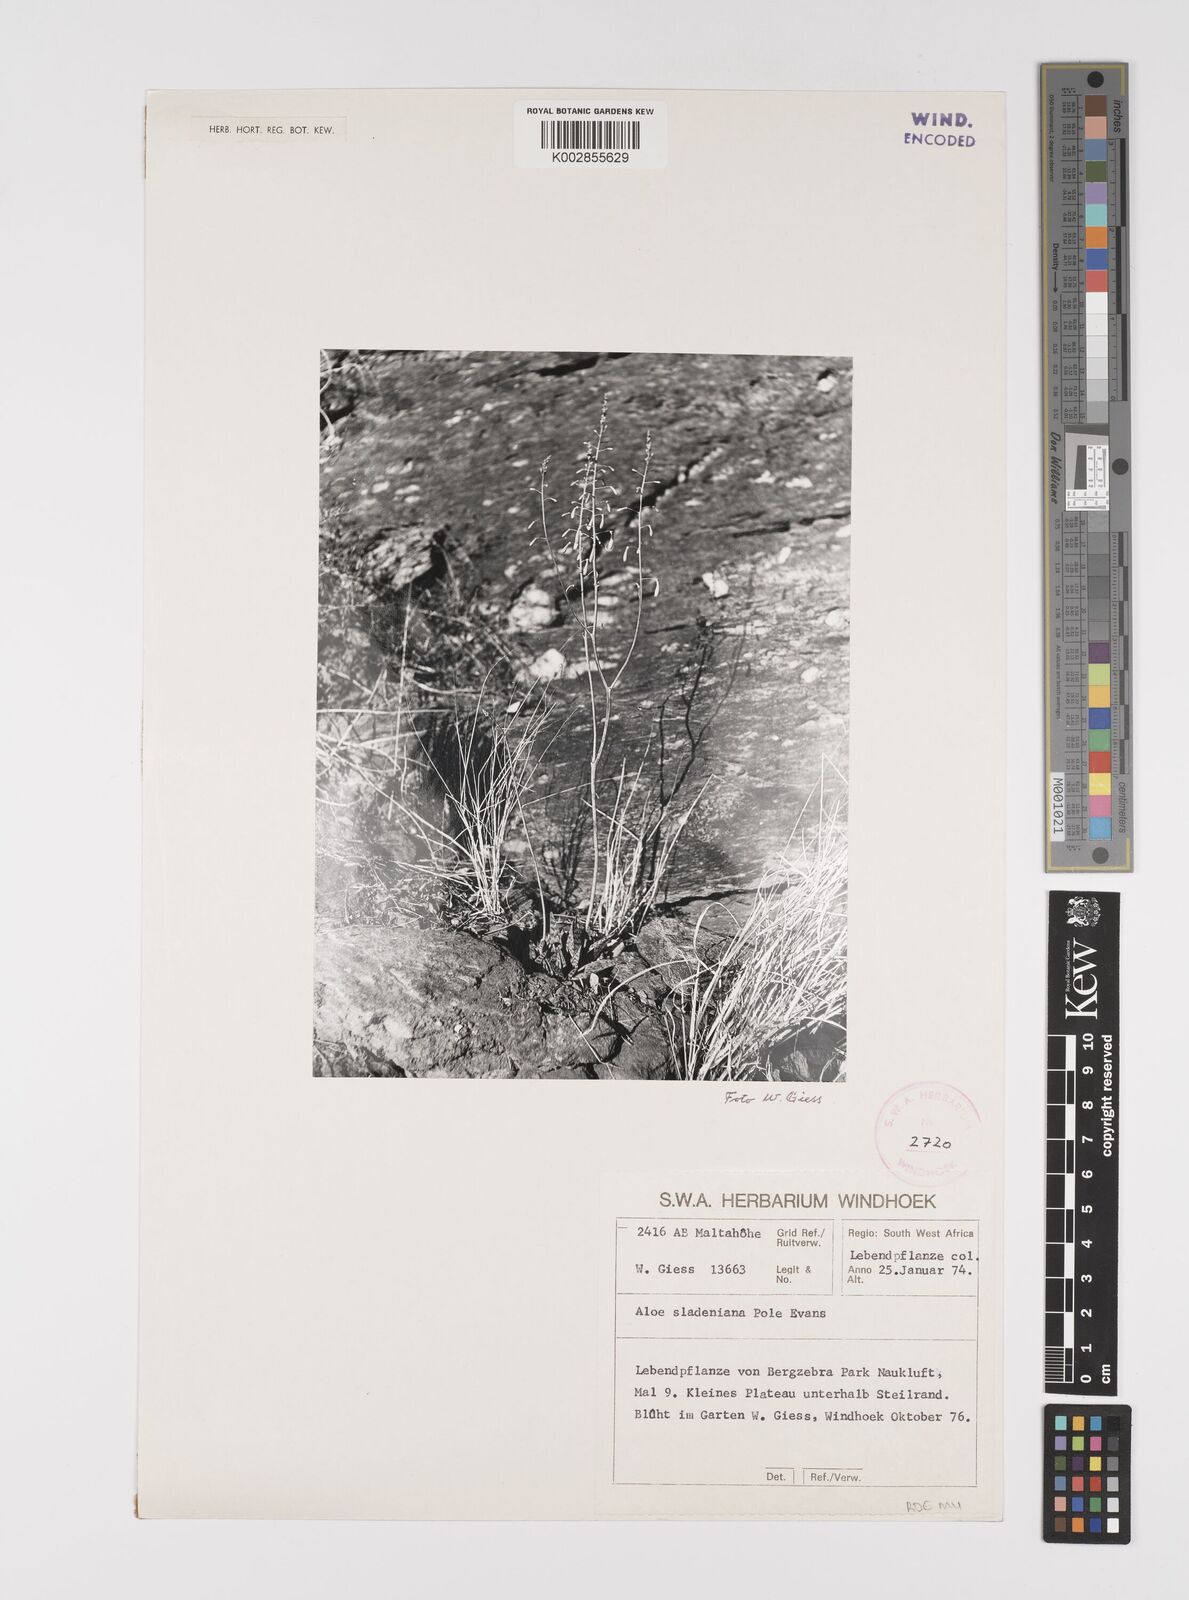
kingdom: Plantae
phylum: Tracheophyta
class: Liliopsida
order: Asparagales
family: Asphodelaceae
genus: Gonialoe
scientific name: Gonialoe sladeniana
